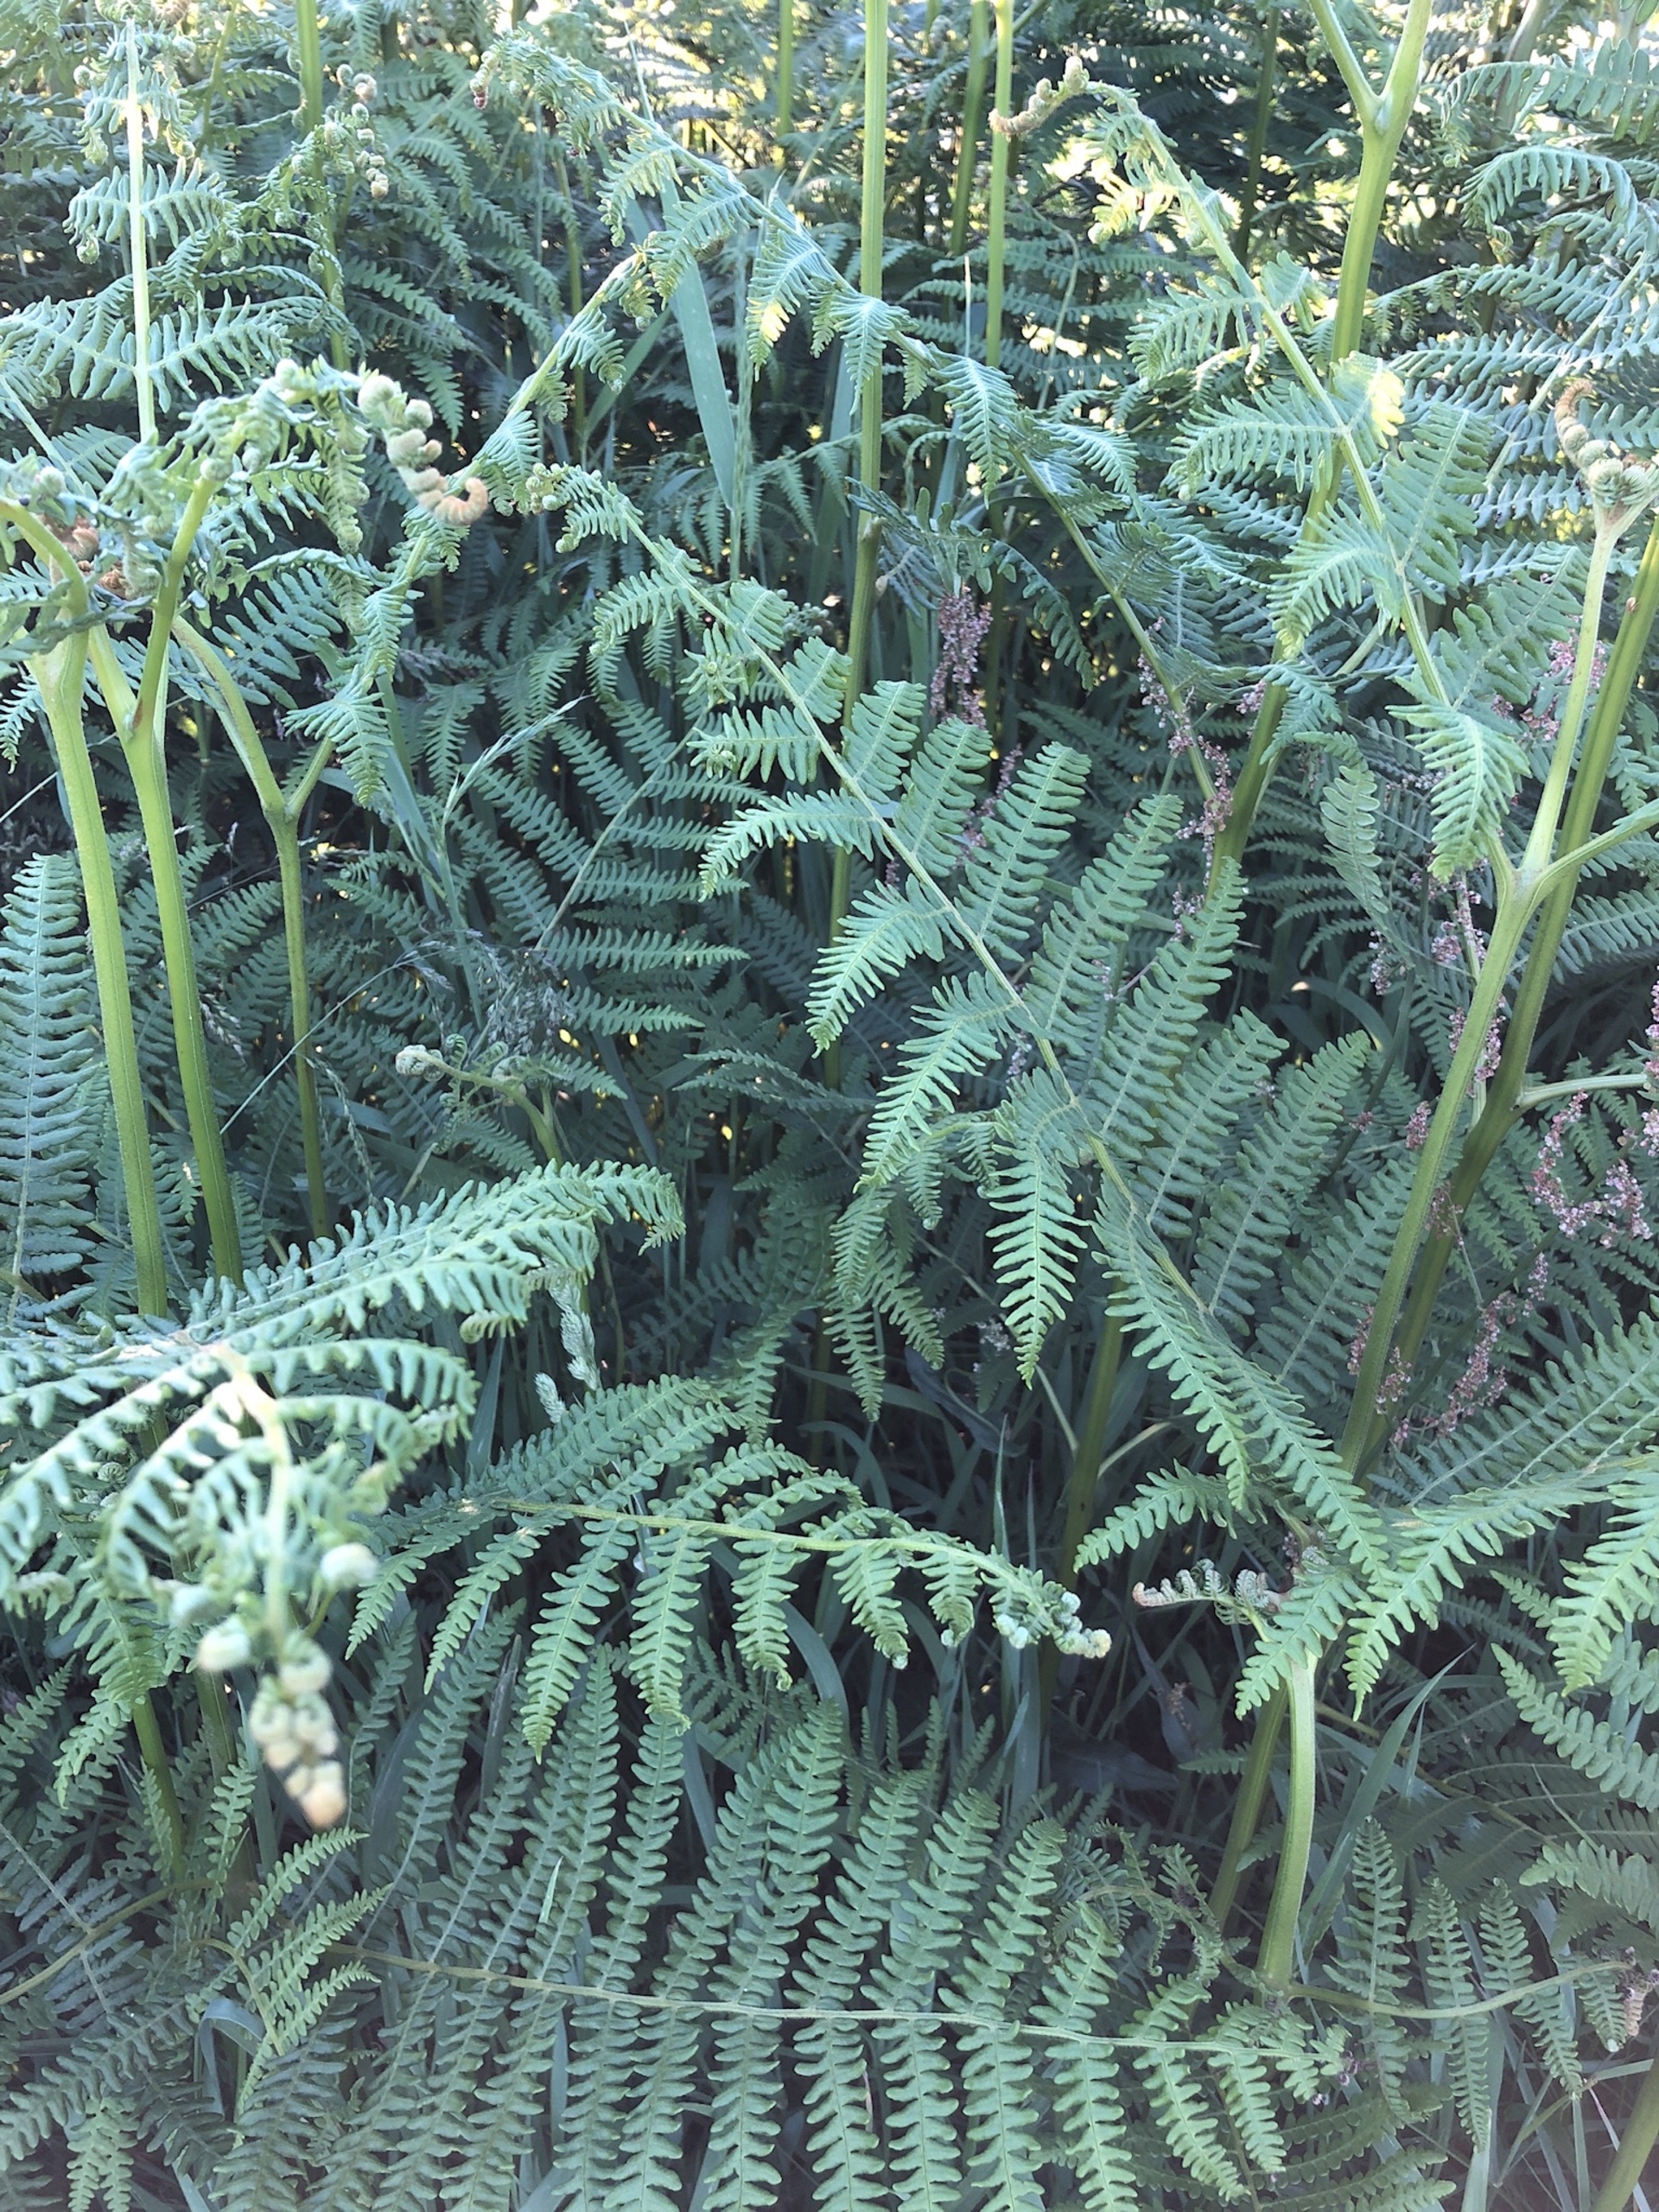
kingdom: Plantae
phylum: Tracheophyta
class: Polypodiopsida
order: Polypodiales
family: Dennstaedtiaceae
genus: Pteridium
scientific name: Pteridium aquilinum
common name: Ørnebregne
